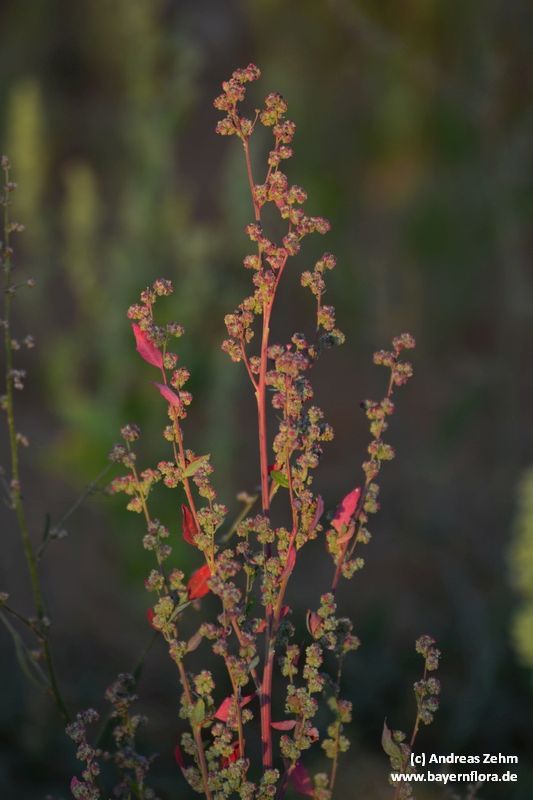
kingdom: Plantae
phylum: Tracheophyta
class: Magnoliopsida
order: Caryophyllales
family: Amaranthaceae
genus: Chenopodium
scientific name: Chenopodium album
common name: Fat-hen
